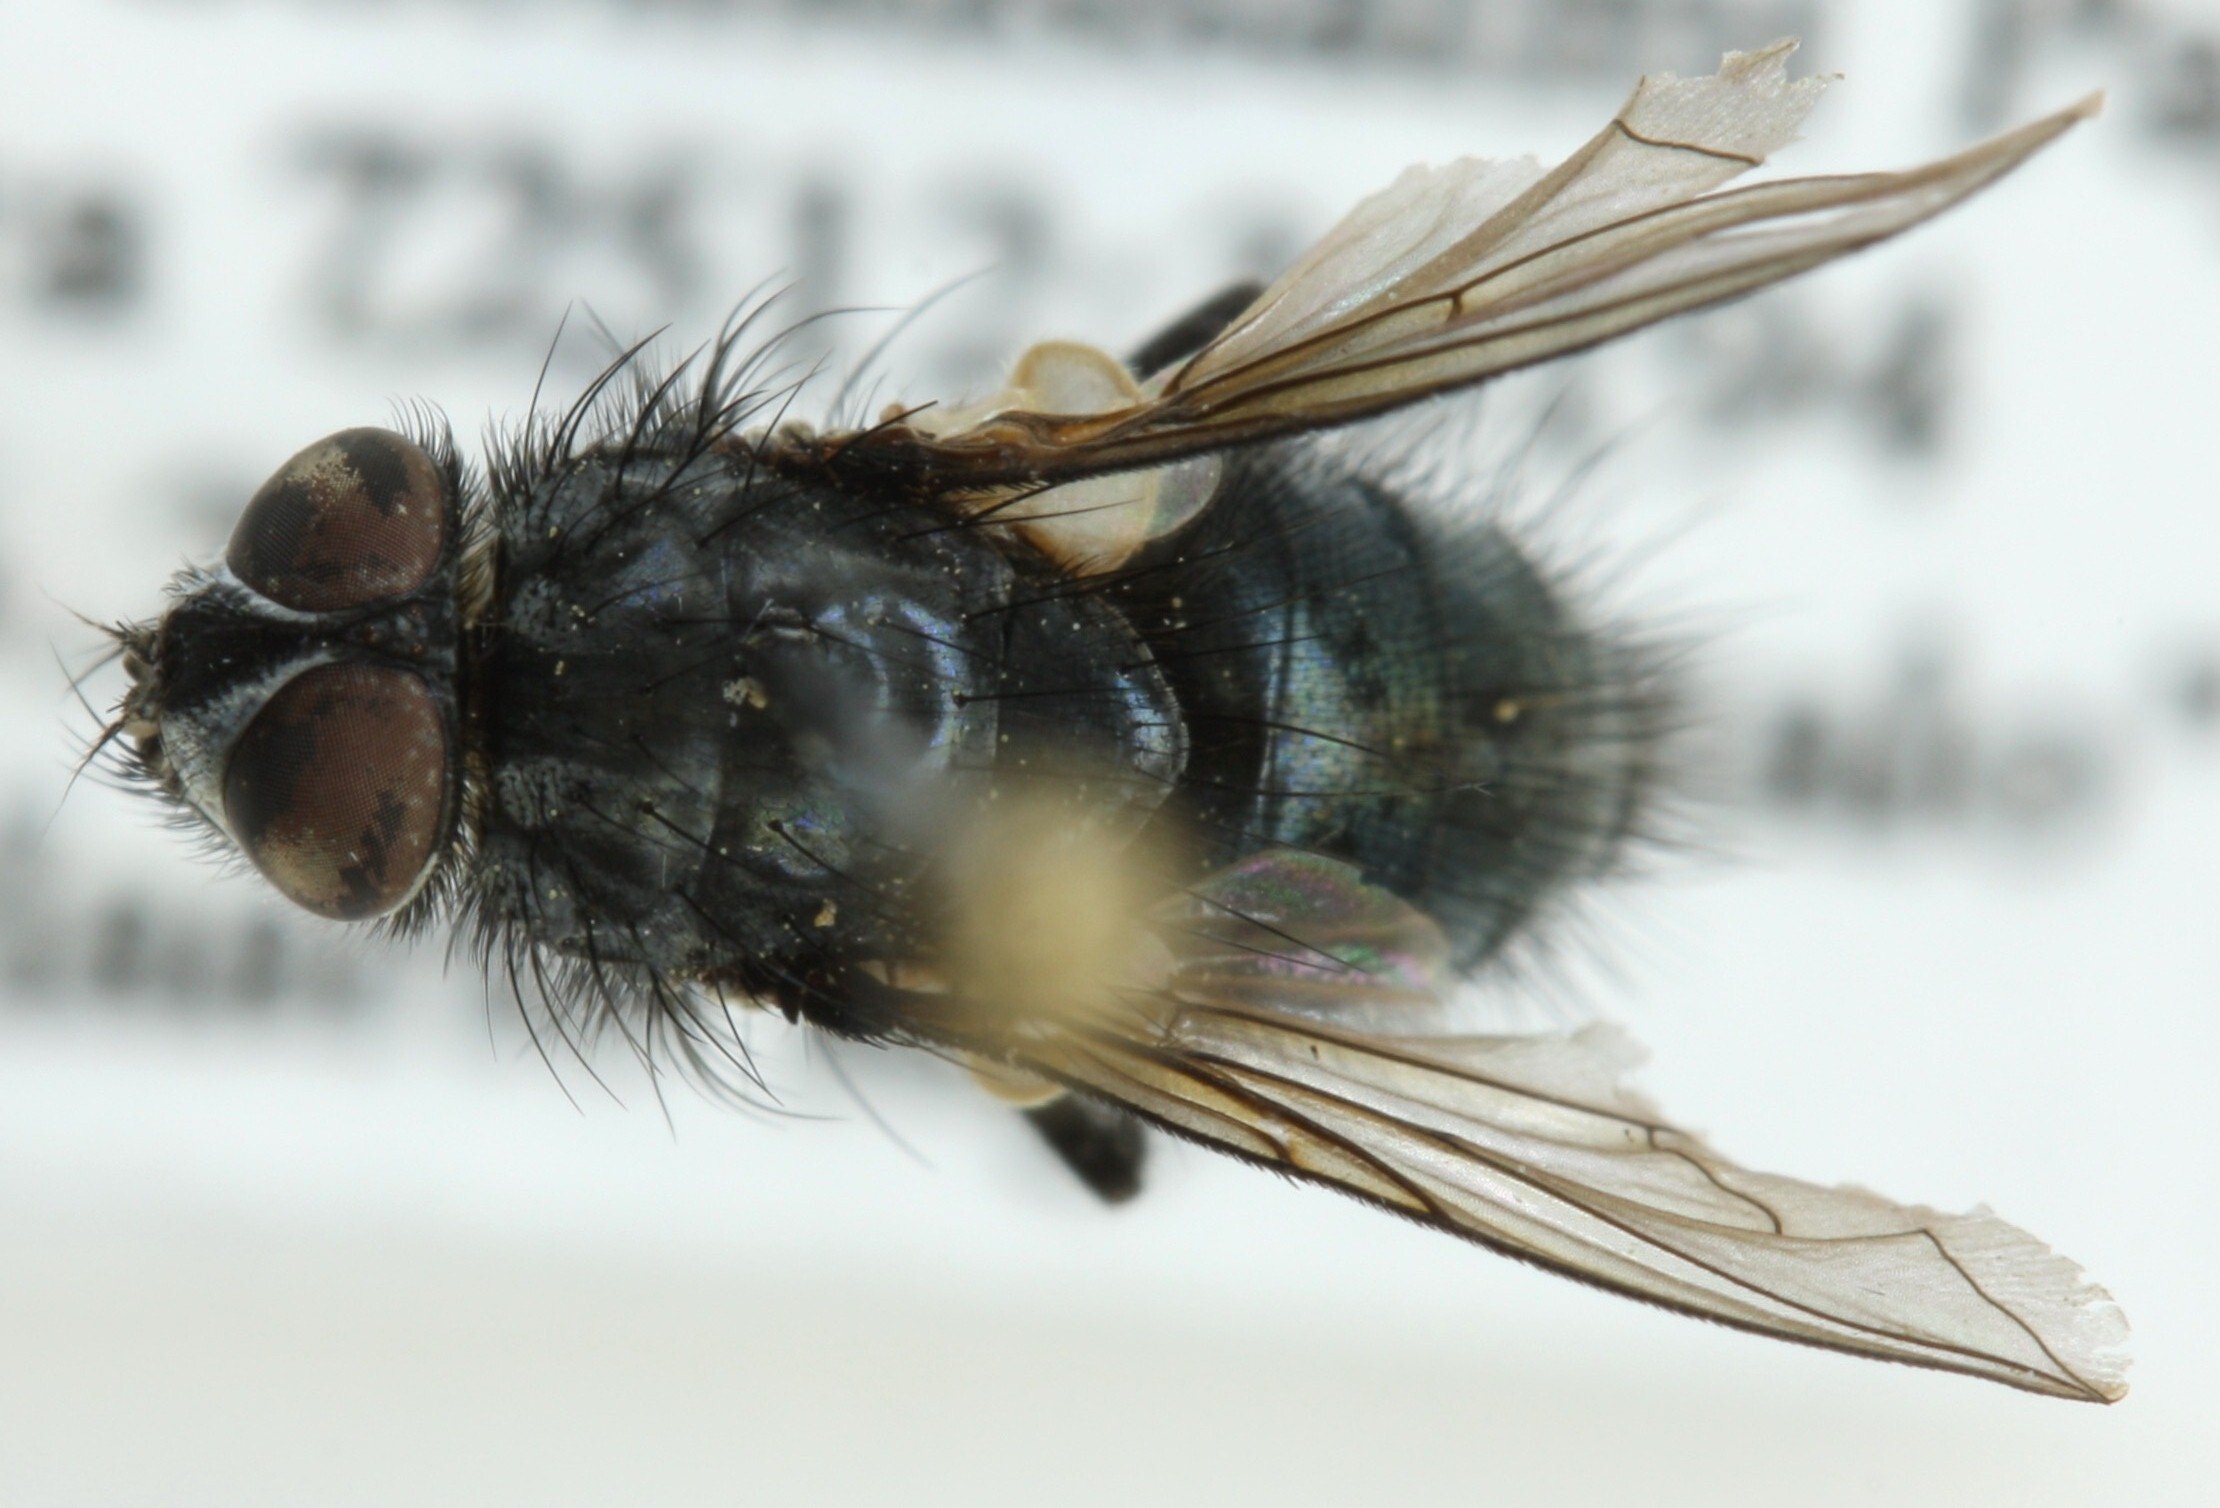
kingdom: Animalia
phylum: Arthropoda
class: Insecta
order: Diptera
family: Calliphoridae
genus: Bellardia
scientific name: Bellardia vulgaris
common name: Pale-veined emerald-bottle fly
